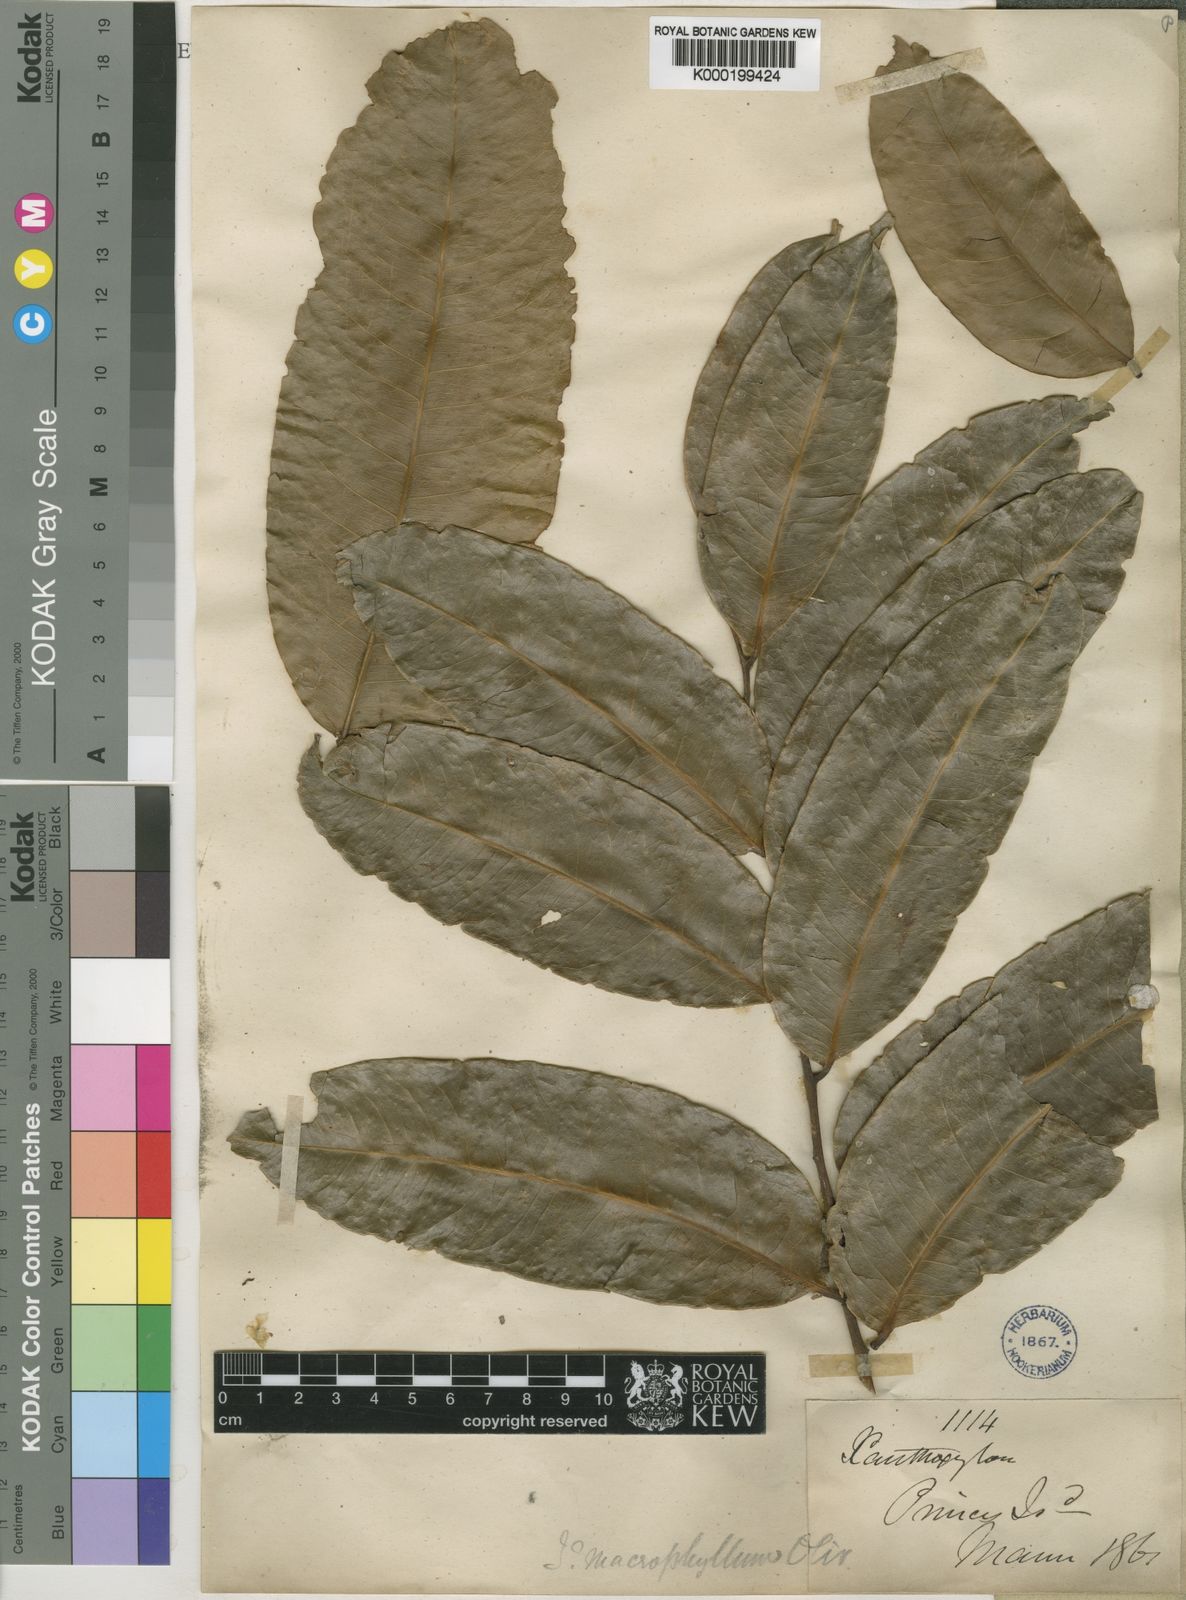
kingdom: Plantae
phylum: Tracheophyta
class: Magnoliopsida
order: Sapindales
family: Rutaceae
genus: Zanthoxylum
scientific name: Zanthoxylum gilletii
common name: African satinwood
